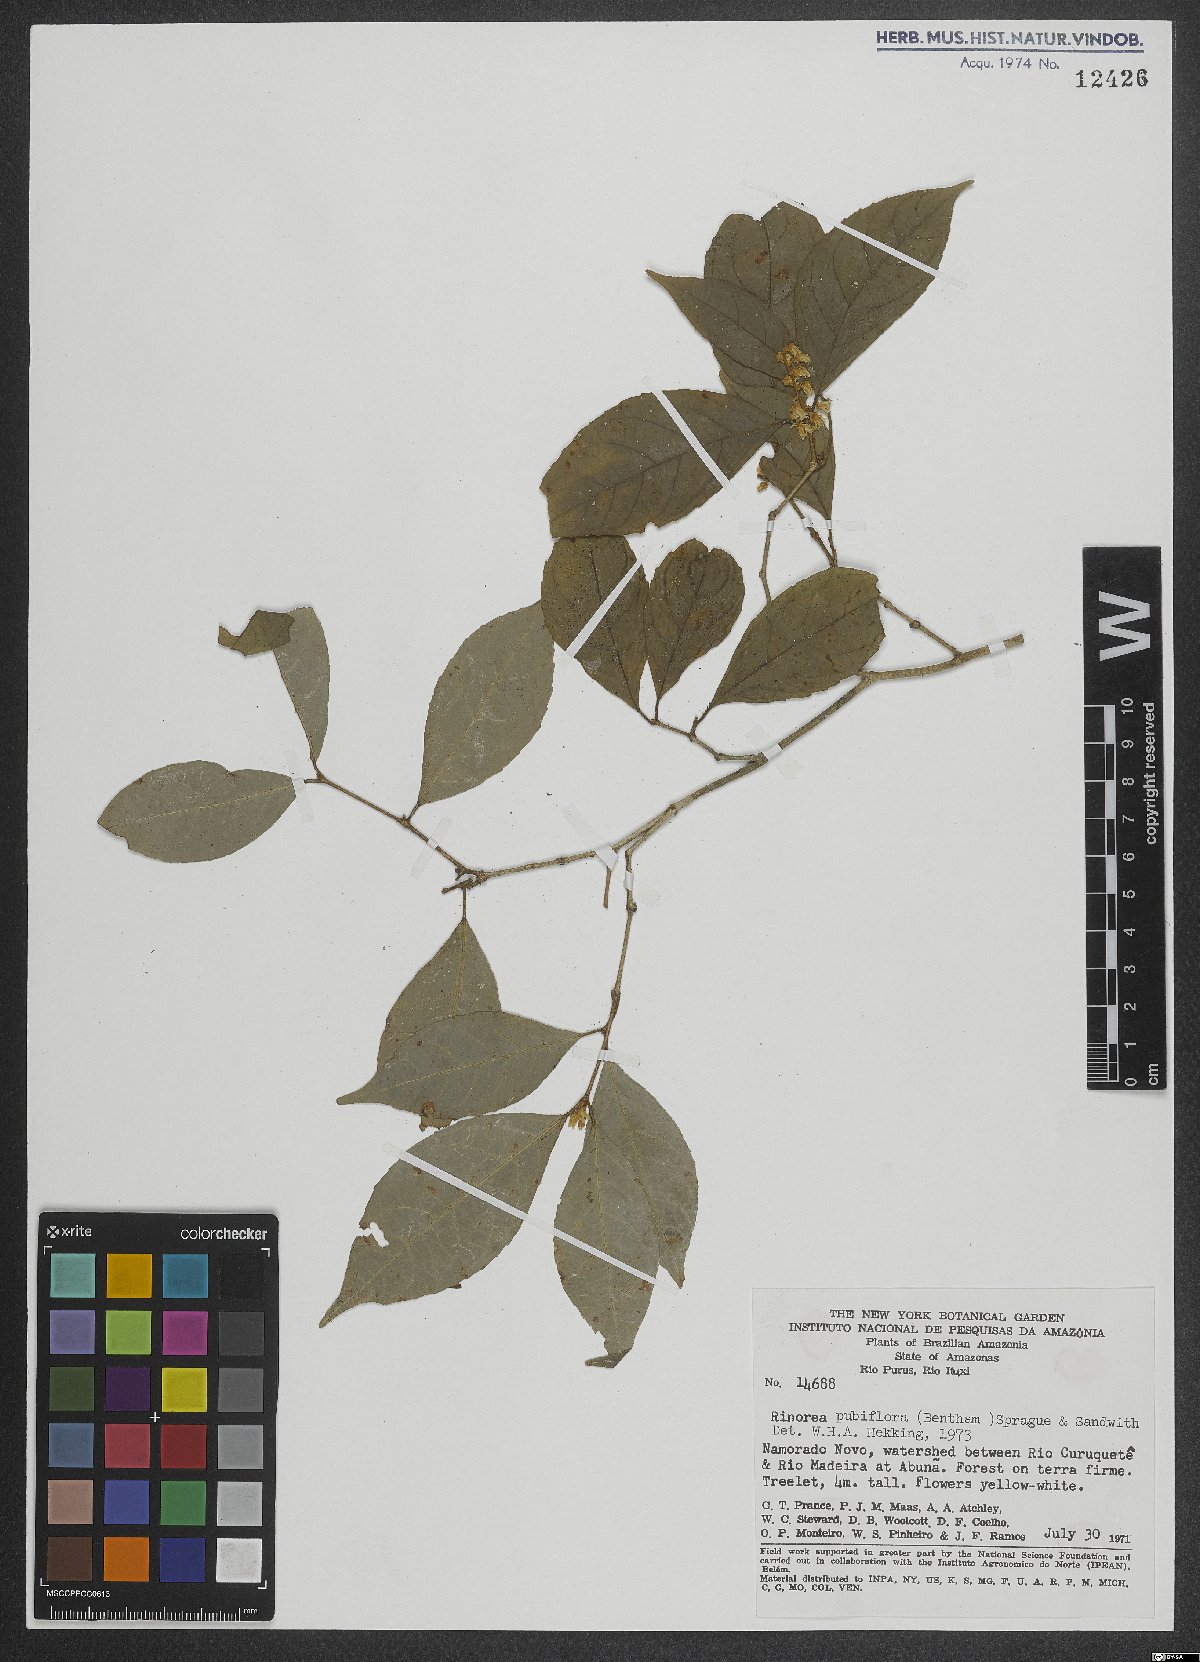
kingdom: Plantae
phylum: Tracheophyta
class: Magnoliopsida
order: Malpighiales
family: Violaceae
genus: Rinorea
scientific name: Rinorea pubiflora
